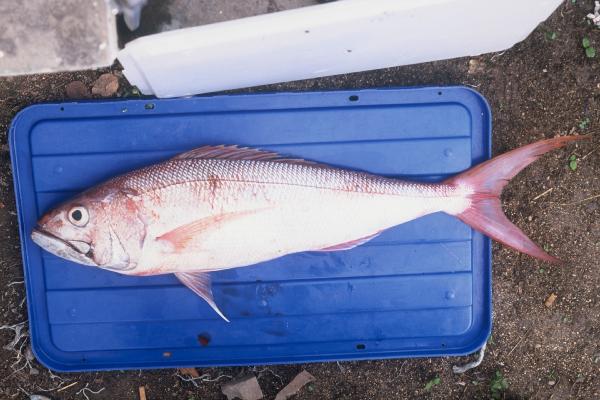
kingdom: Animalia
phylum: Chordata
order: Perciformes
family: Lutjanidae
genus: Aphareus
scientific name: Aphareus rutilans
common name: Rusty jobfish
